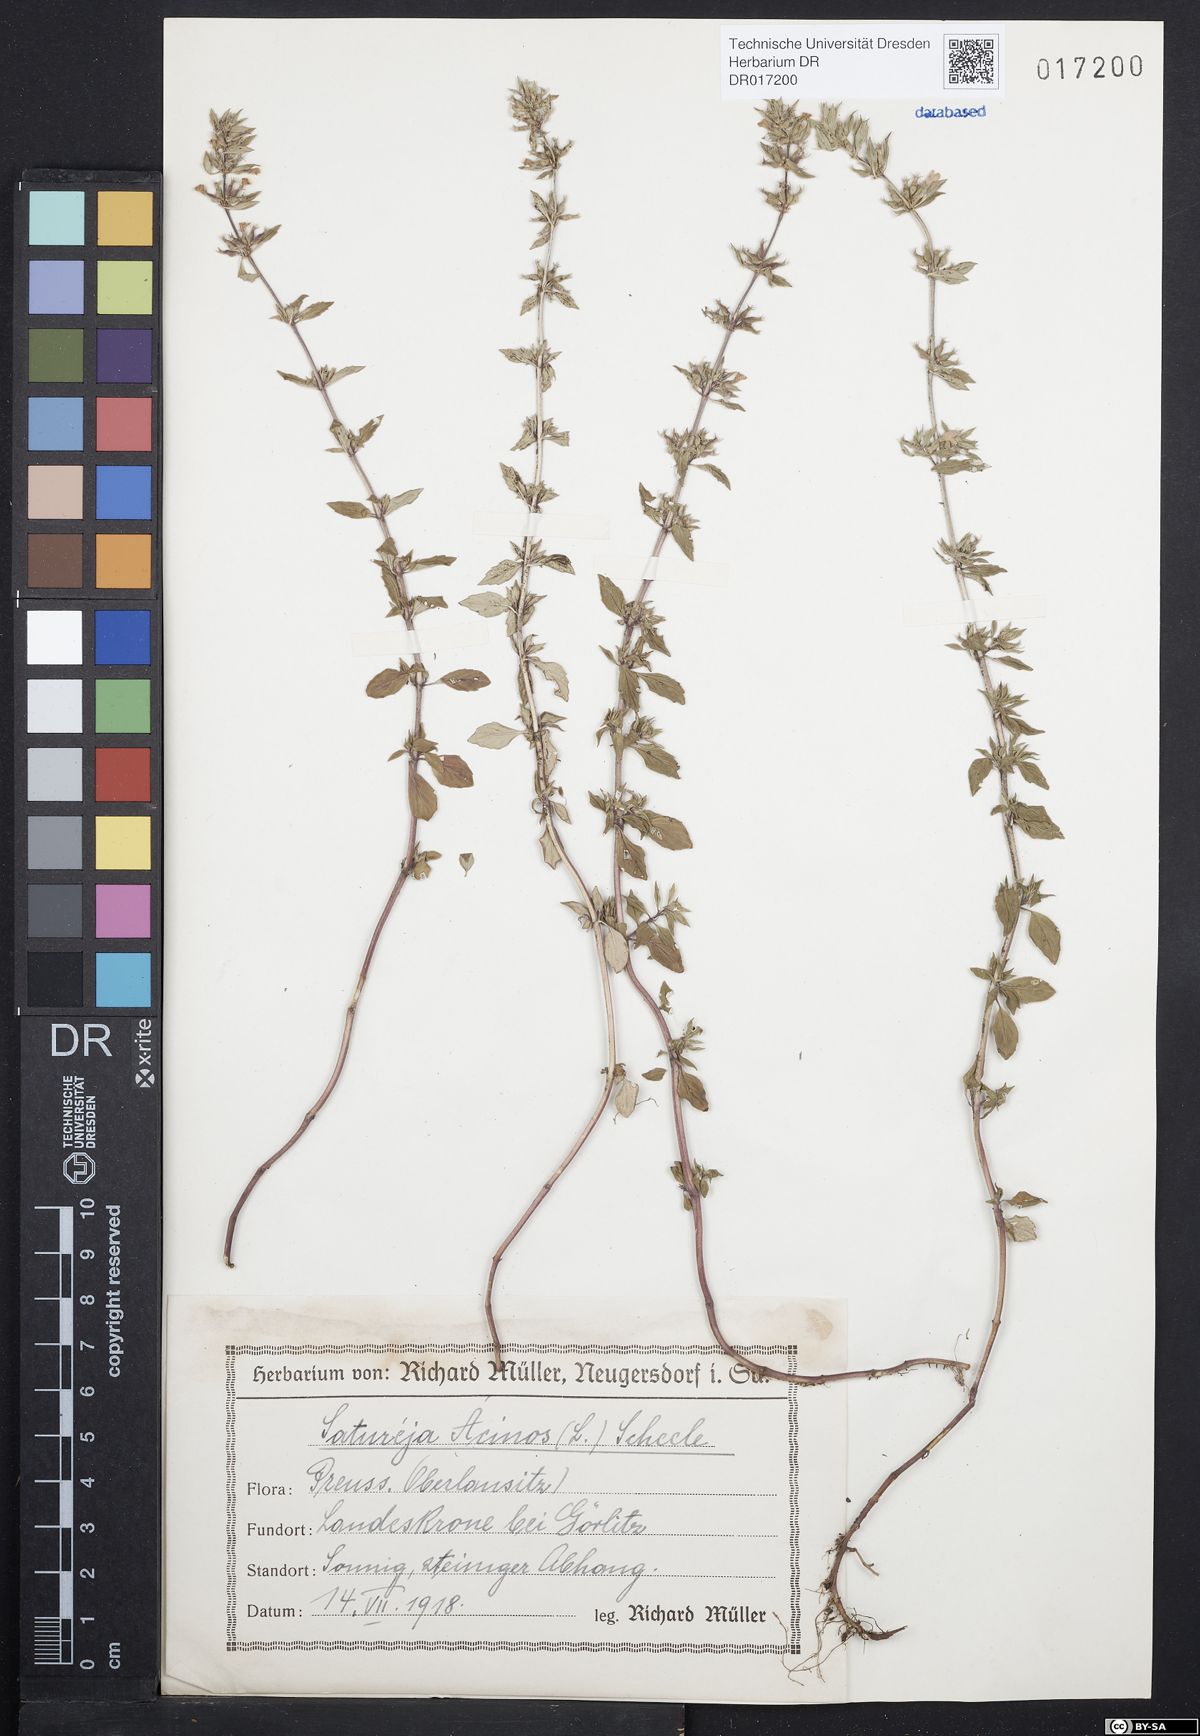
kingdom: Plantae
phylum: Tracheophyta
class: Magnoliopsida
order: Lamiales
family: Lamiaceae
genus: Clinopodium
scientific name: Clinopodium acinos
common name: Basil thyme
